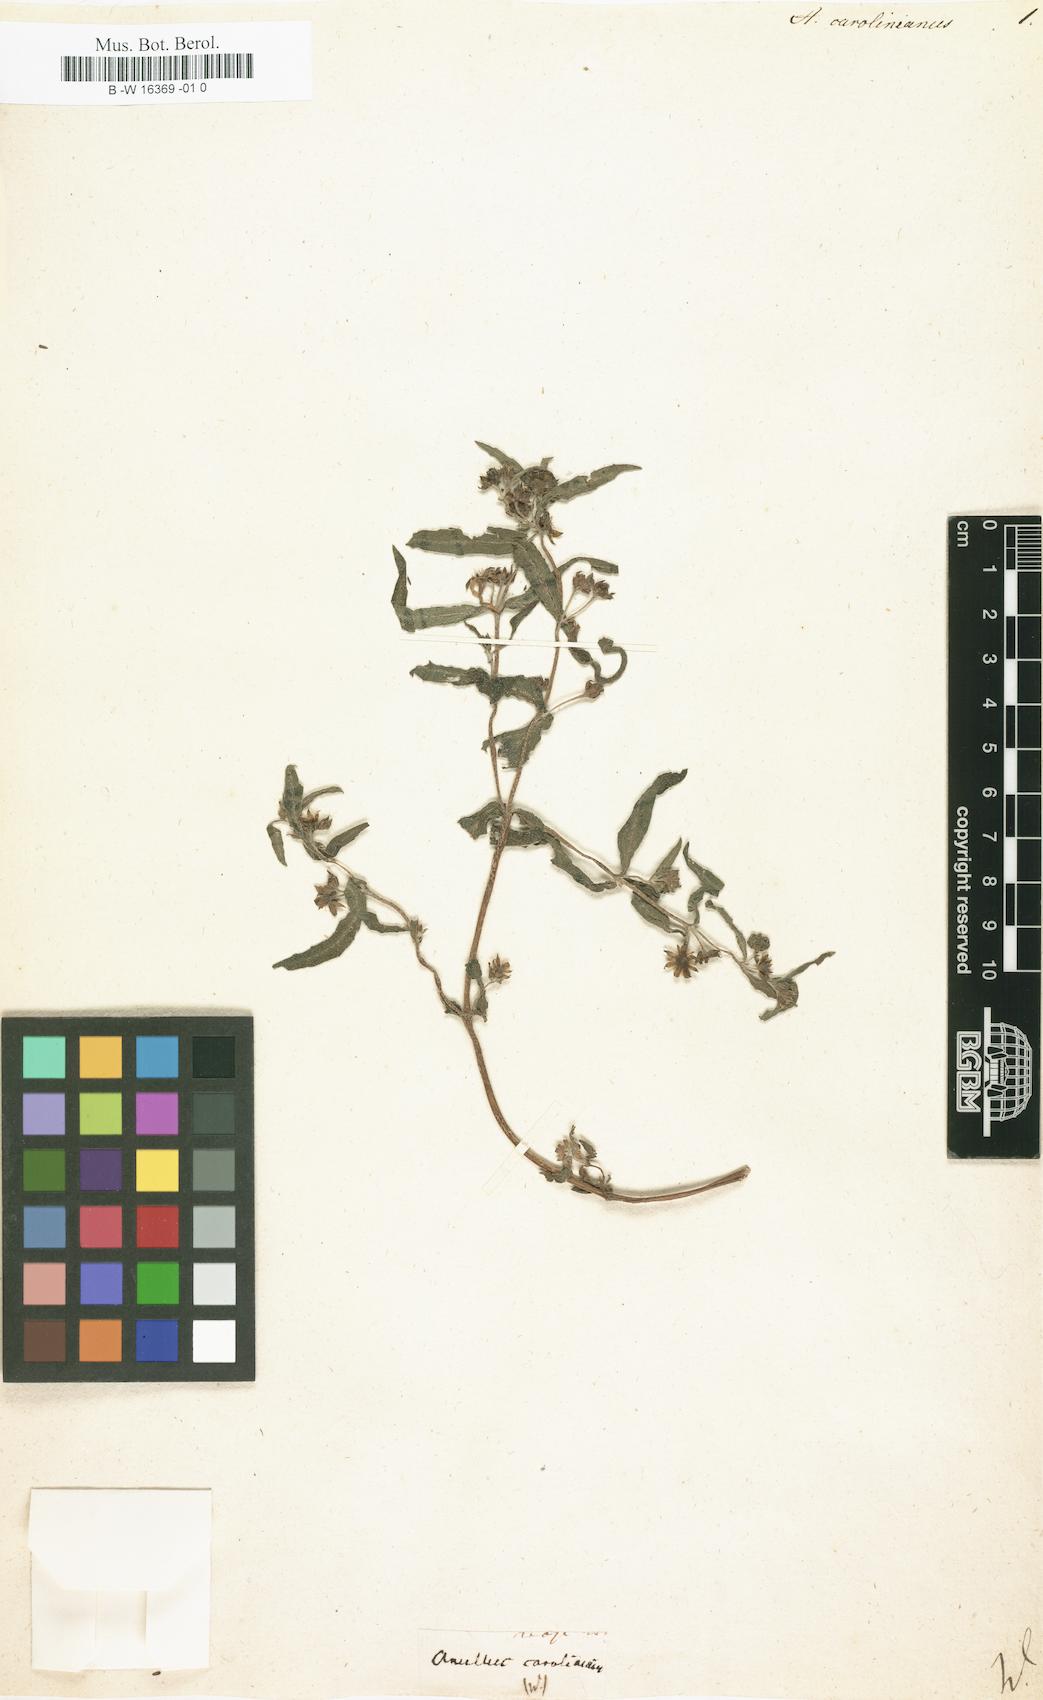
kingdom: Plantae
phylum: Tracheophyta
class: Magnoliopsida
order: Asterales
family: Asteraceae
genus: Eclipta
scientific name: Eclipta alba
